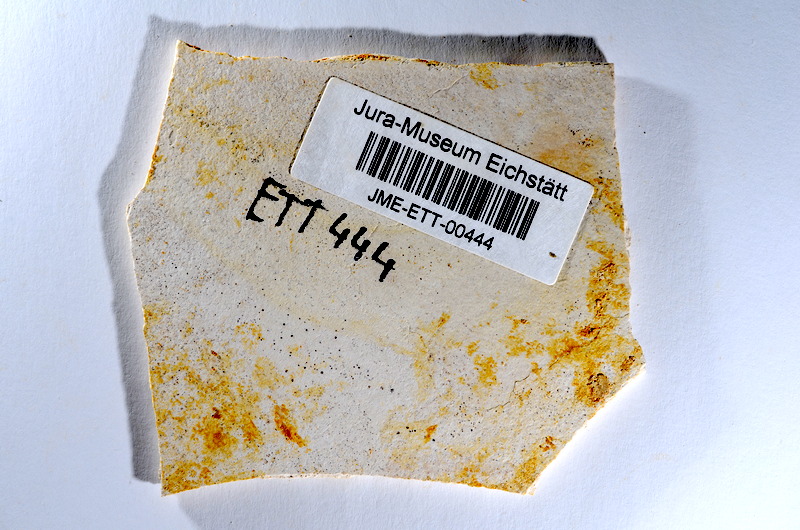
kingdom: Animalia
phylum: Chordata
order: Salmoniformes
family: Orthogonikleithridae
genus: Orthogonikleithrus
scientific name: Orthogonikleithrus hoelli
